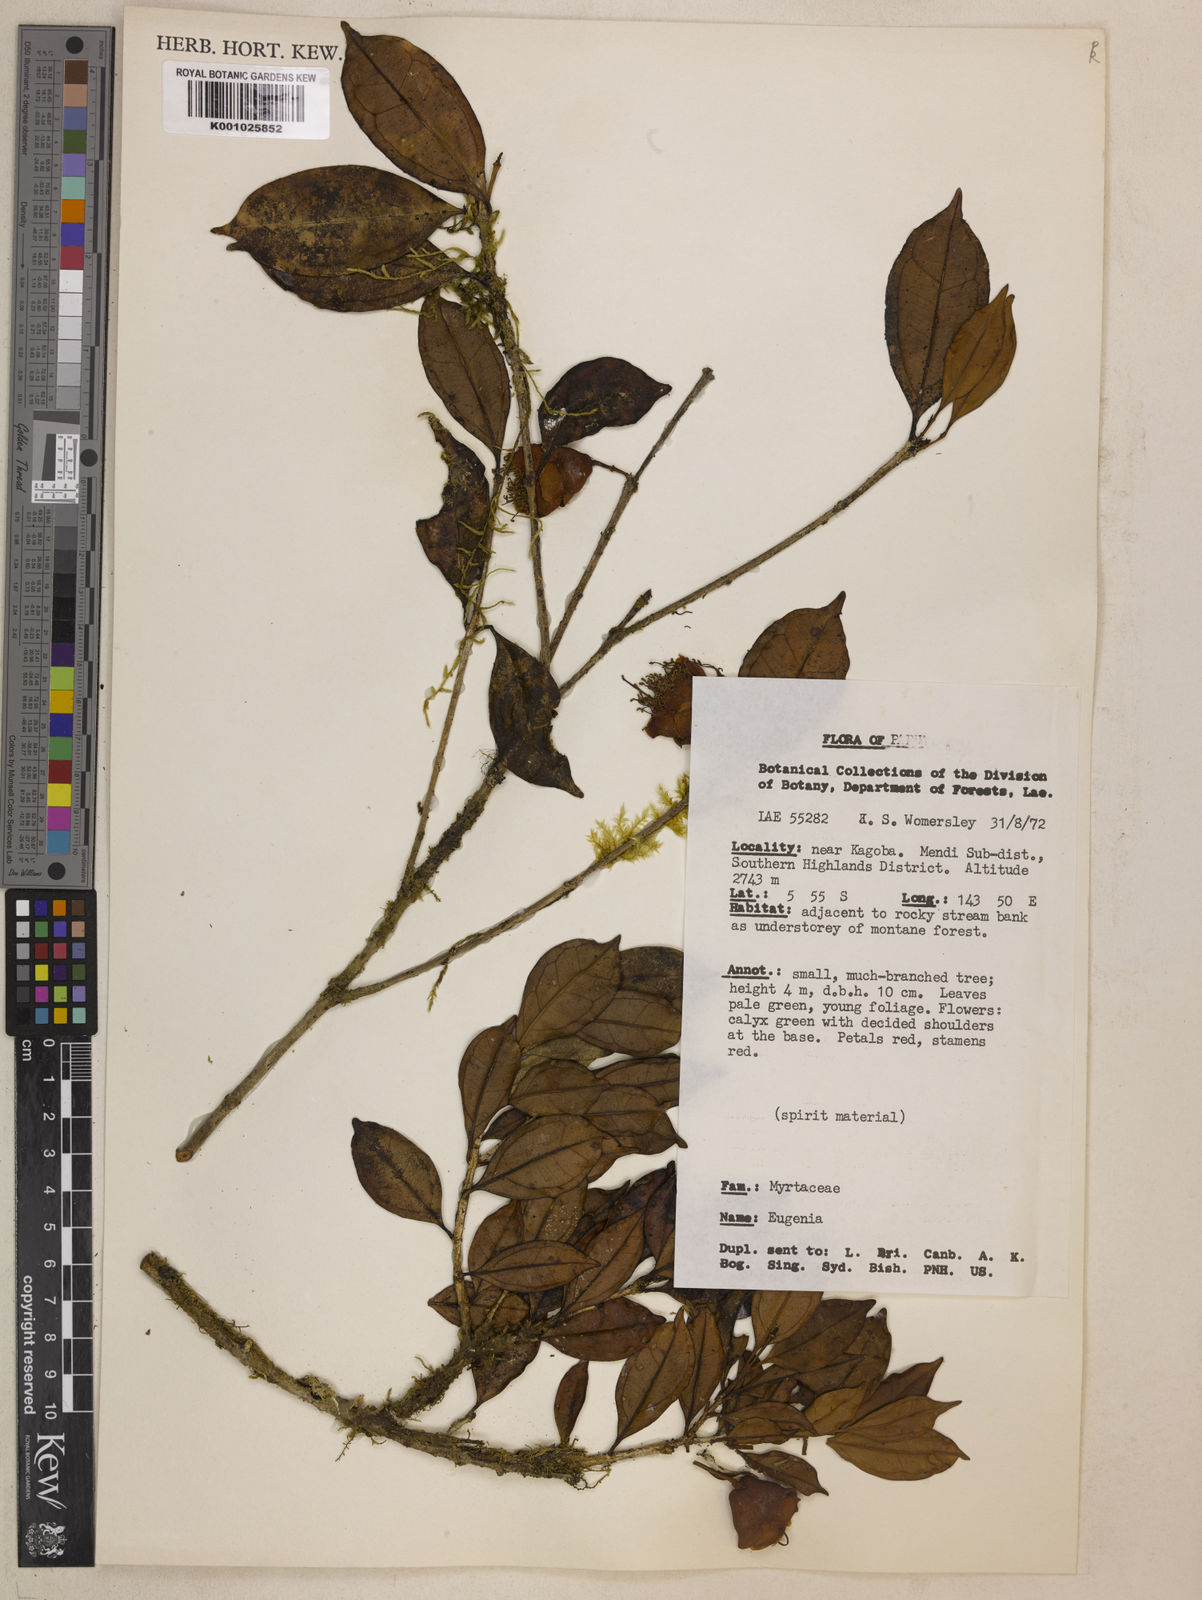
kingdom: Plantae
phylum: Tracheophyta
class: Magnoliopsida
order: Myrtales
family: Myrtaceae
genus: Eugenia
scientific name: Eugenia
